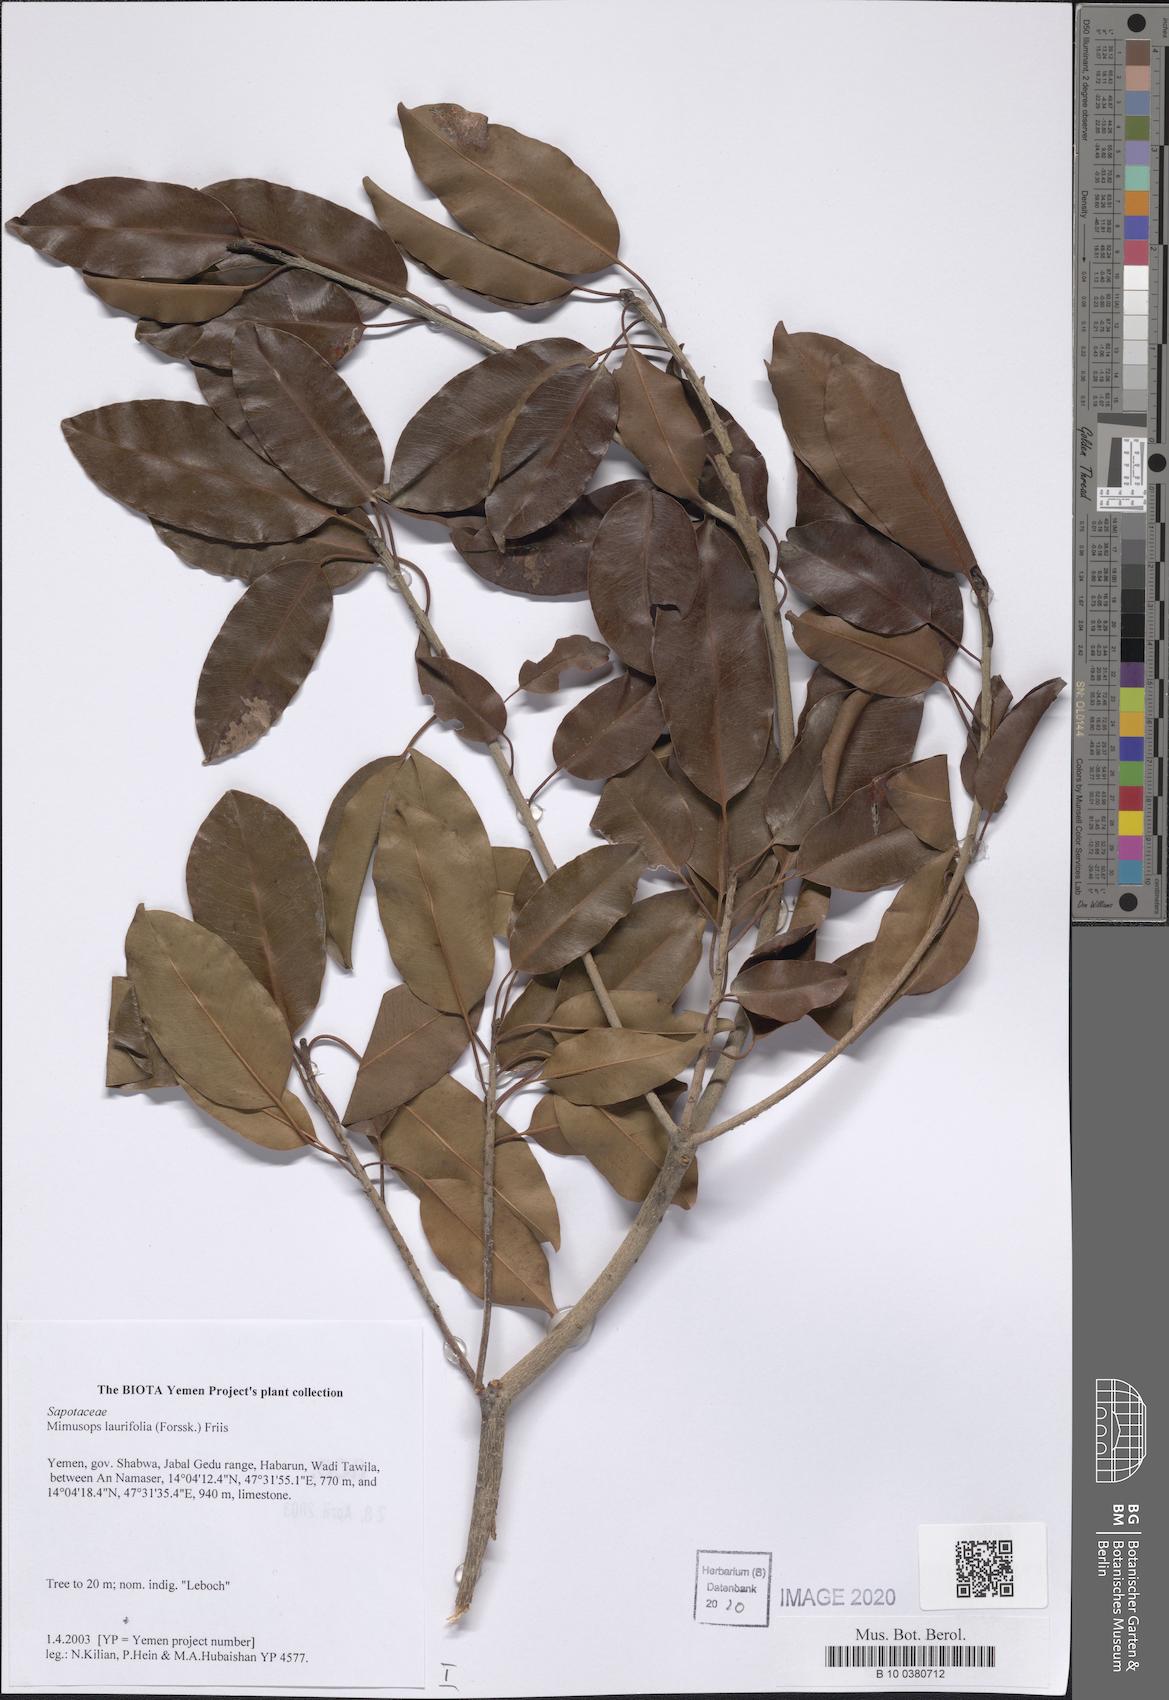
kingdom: Plantae
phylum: Tracheophyta
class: Magnoliopsida
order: Ericales
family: Sapotaceae
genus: Mimusops
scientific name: Mimusops laurifolia
